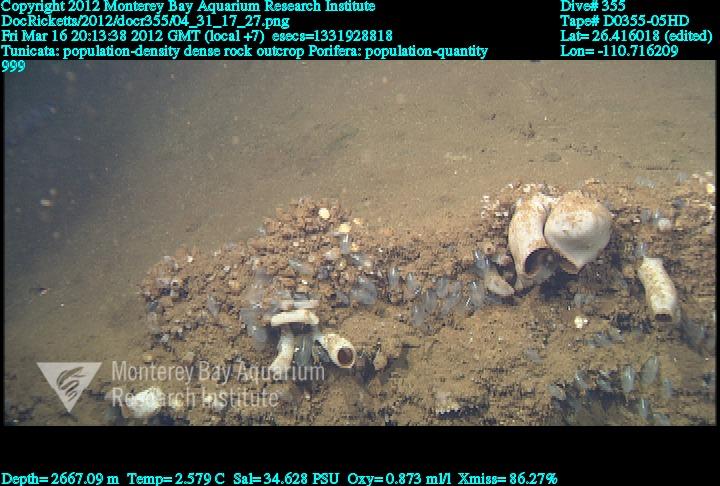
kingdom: Animalia
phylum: Porifera
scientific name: Porifera
